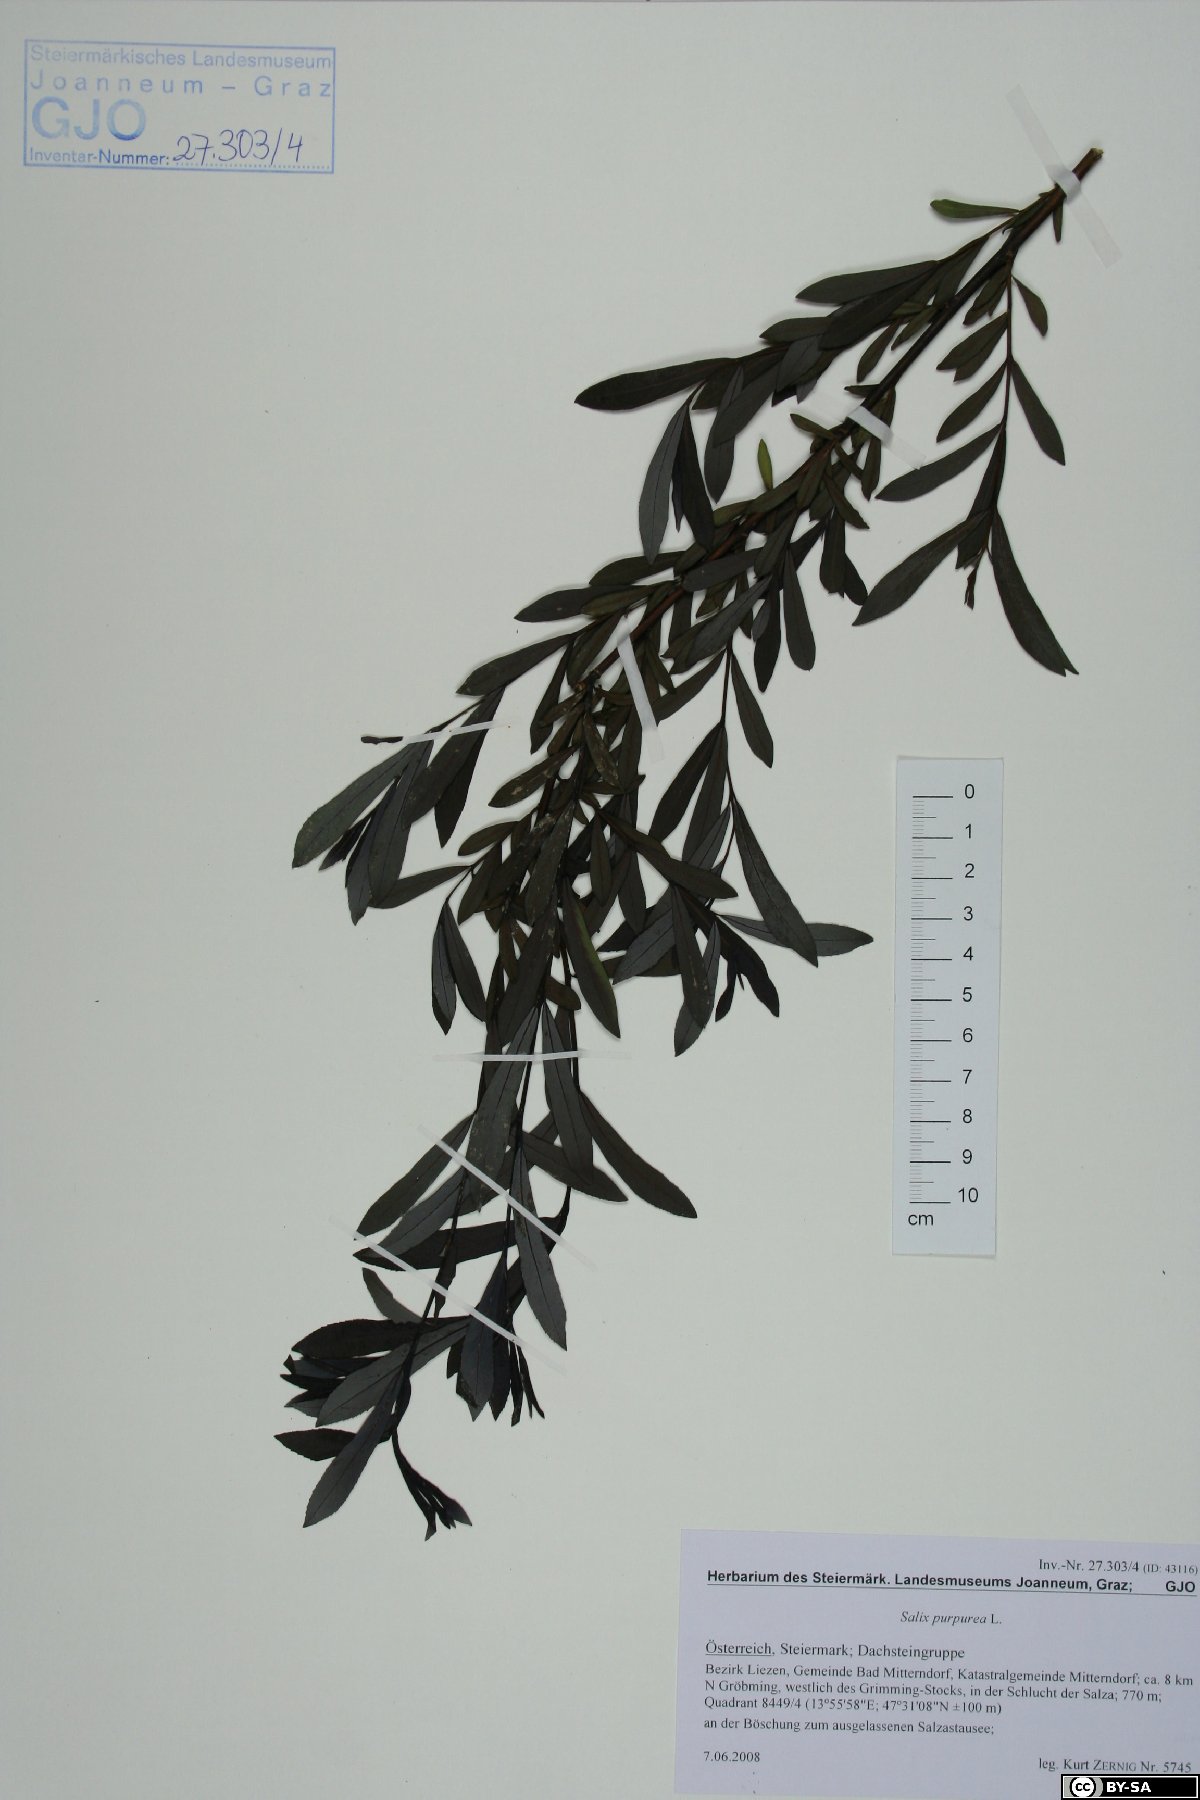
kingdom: Plantae
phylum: Tracheophyta
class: Magnoliopsida
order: Malpighiales
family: Salicaceae
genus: Salix
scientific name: Salix purpurea
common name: Purple willow
